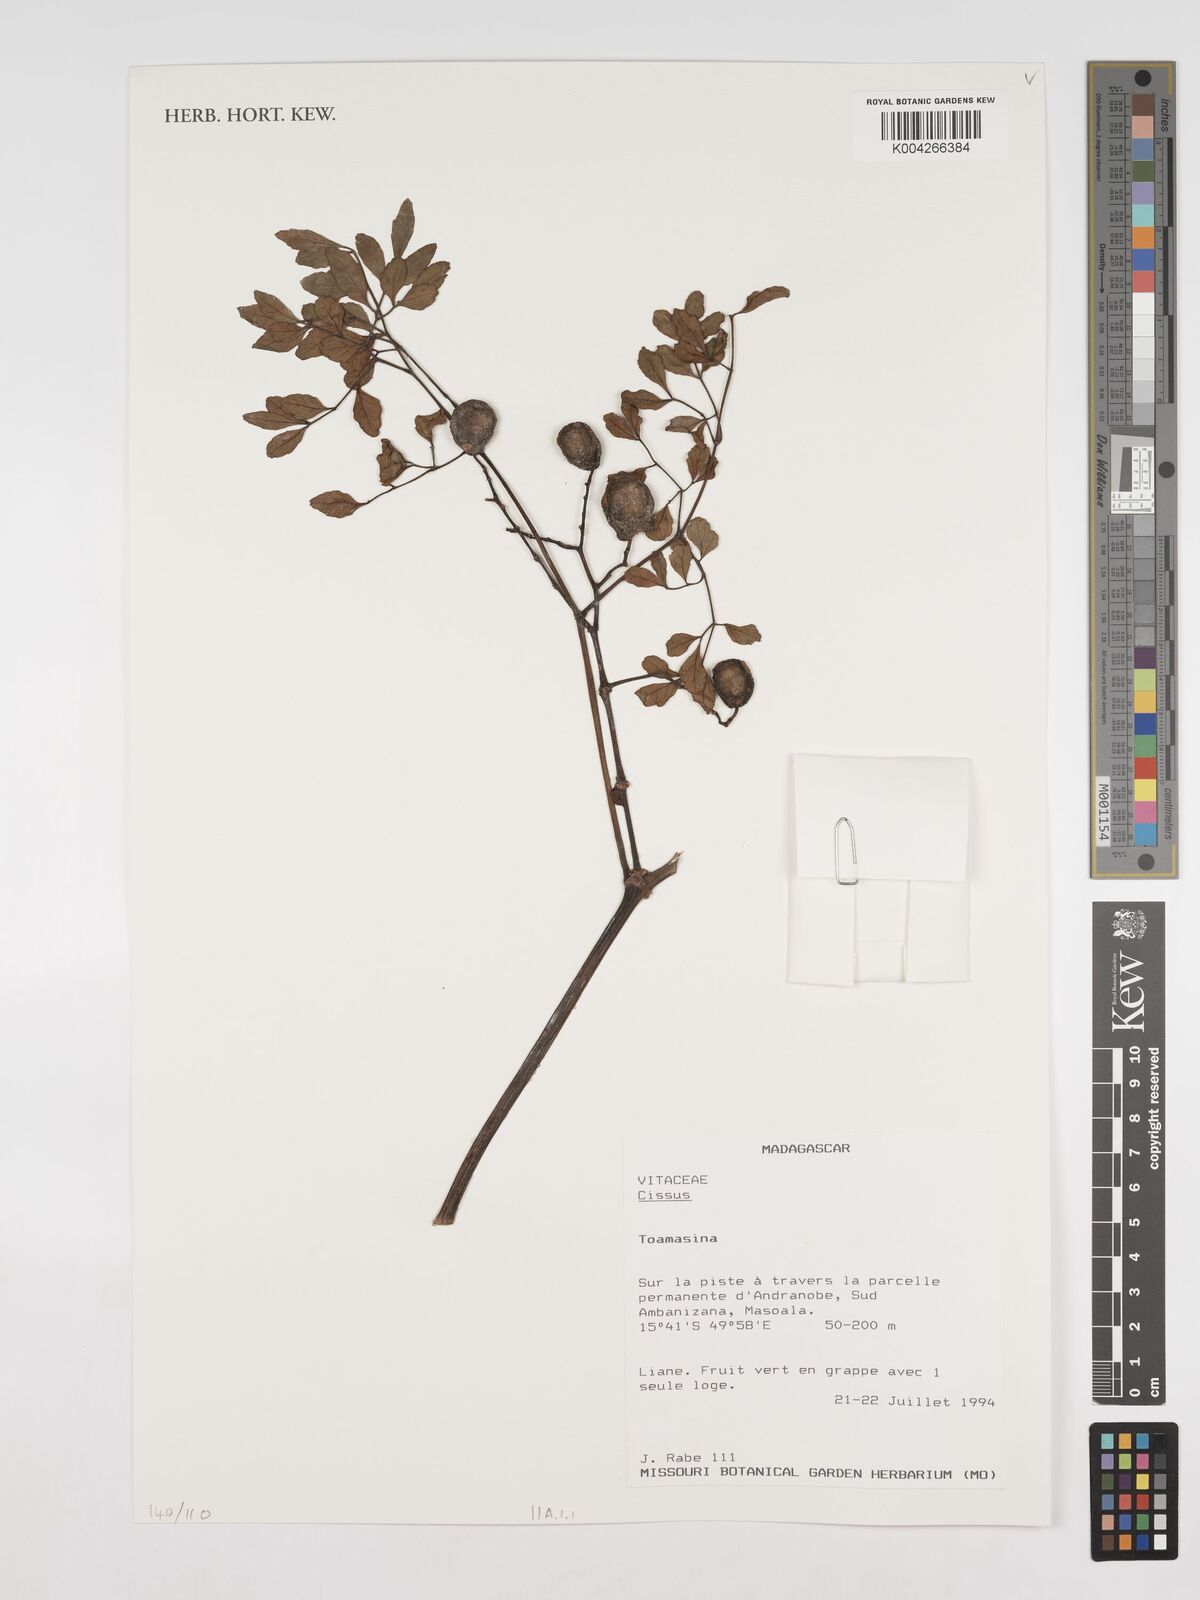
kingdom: Plantae
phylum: Tracheophyta
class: Magnoliopsida
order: Vitales
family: Vitaceae
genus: Cissus
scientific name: Cissus
